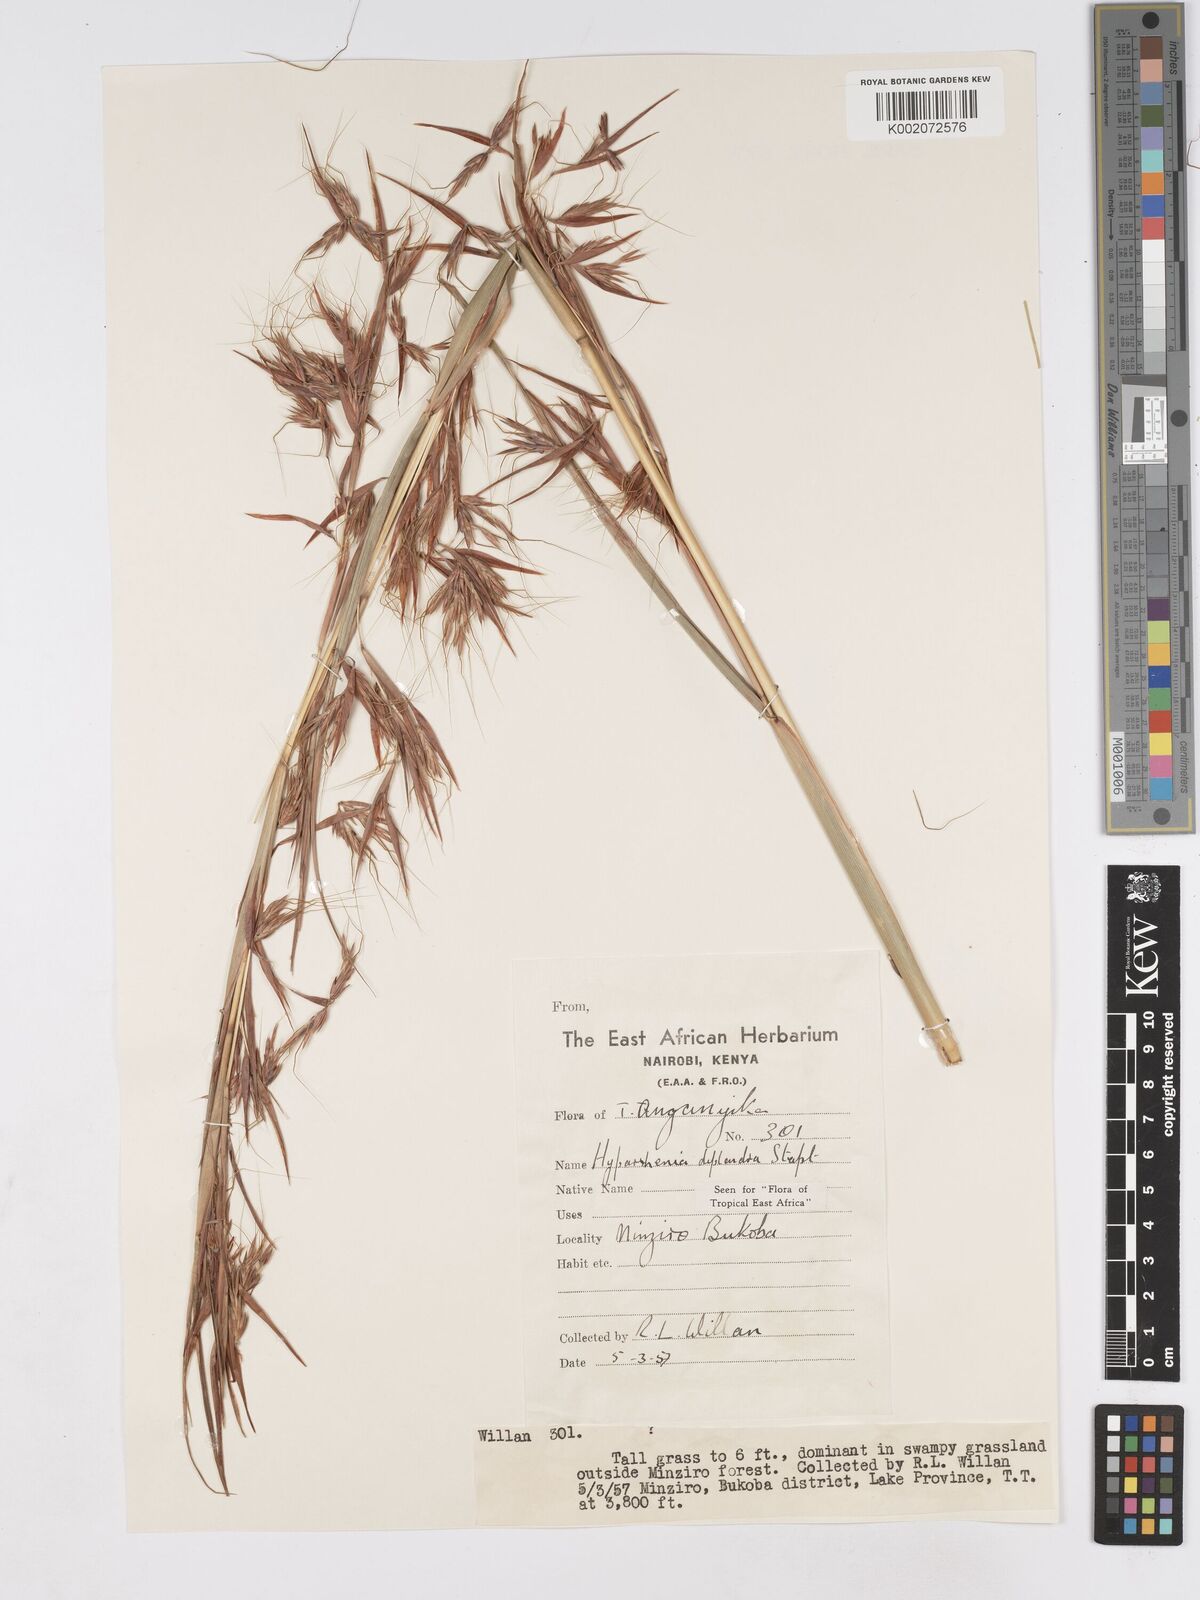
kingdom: Plantae
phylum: Tracheophyta
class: Liliopsida
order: Poales
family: Poaceae
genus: Hyparrhenia
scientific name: Hyparrhenia diplandra
